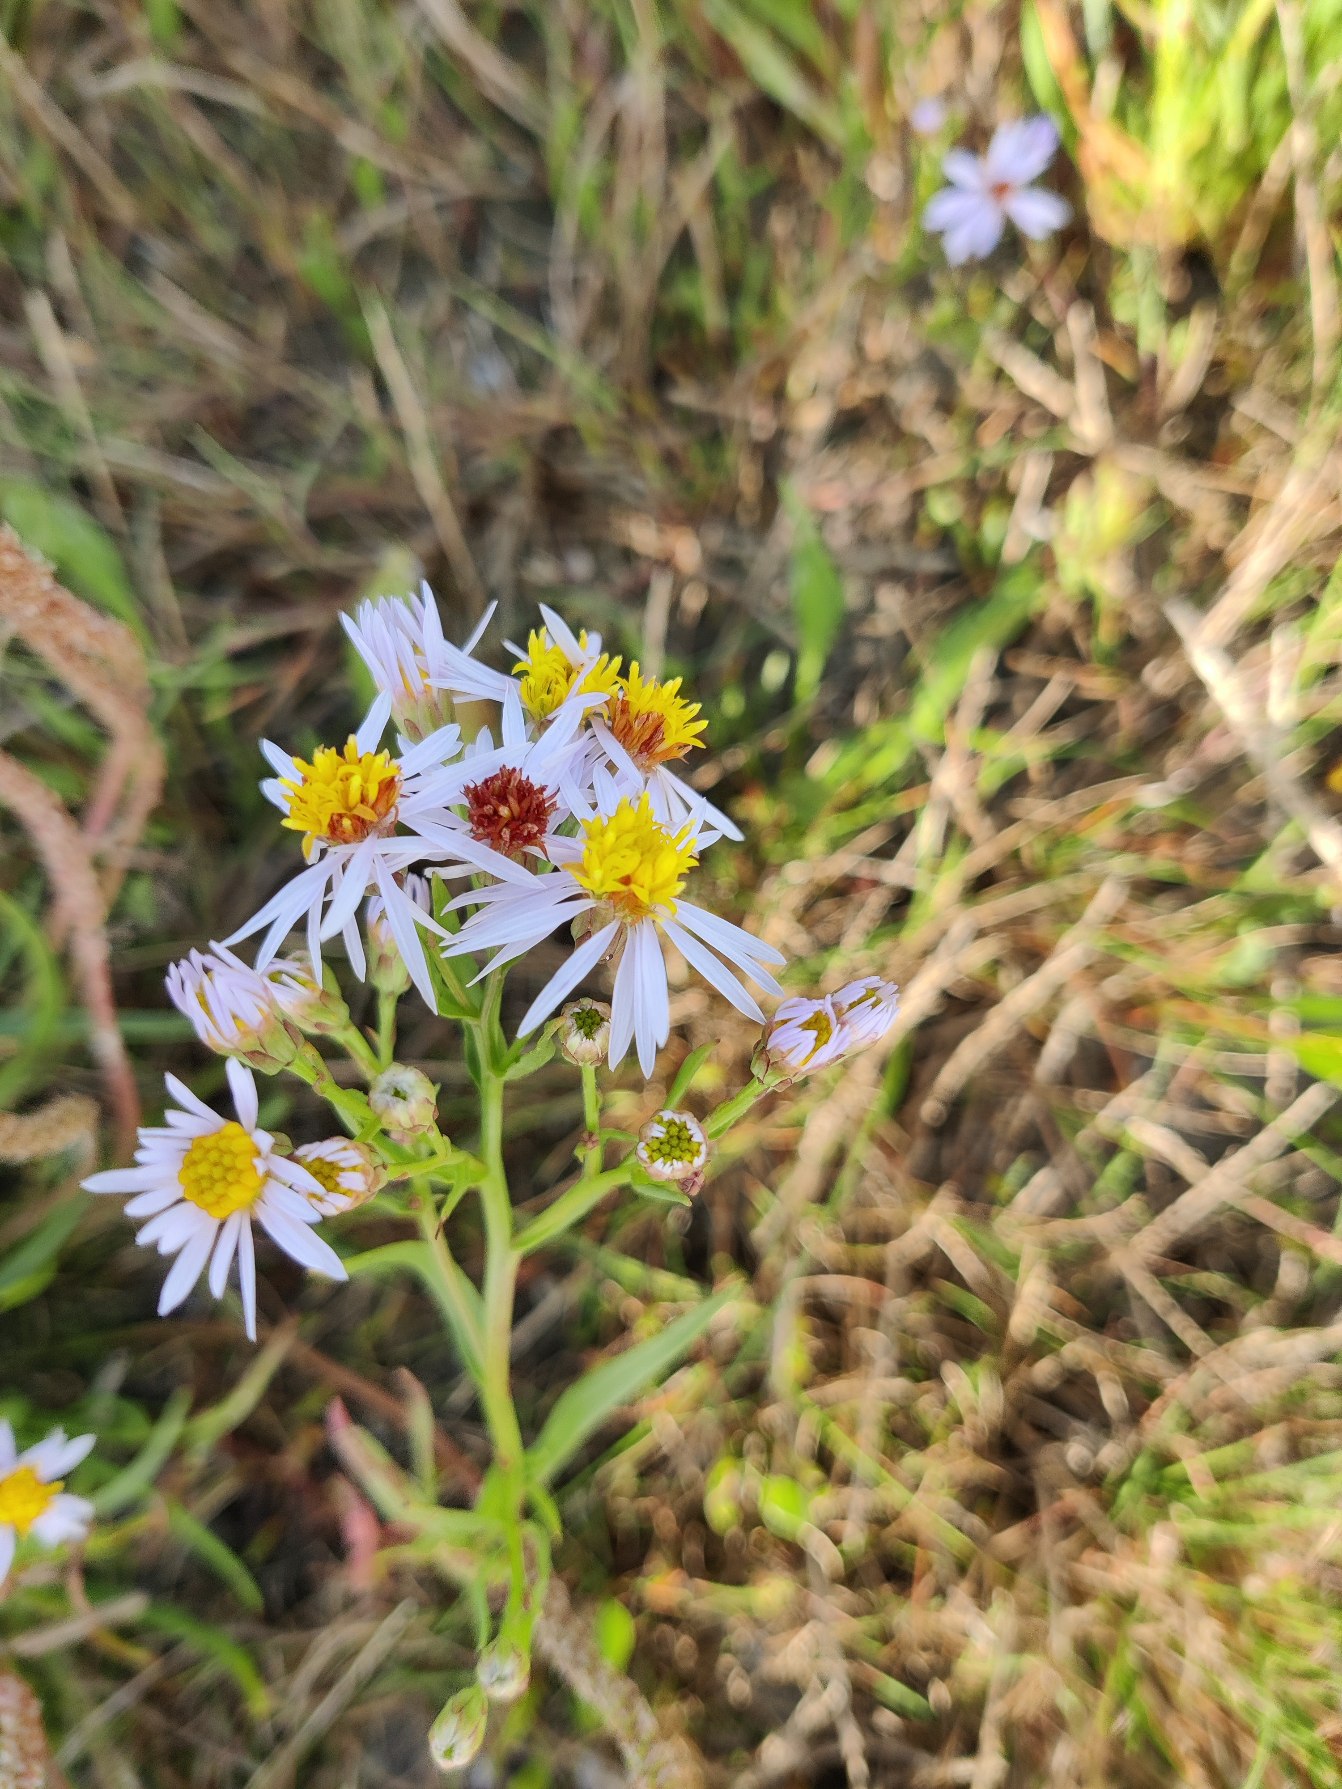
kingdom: Plantae
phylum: Tracheophyta
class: Magnoliopsida
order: Asterales
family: Asteraceae
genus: Tripolium
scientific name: Tripolium pannonicum
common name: Strandasters
